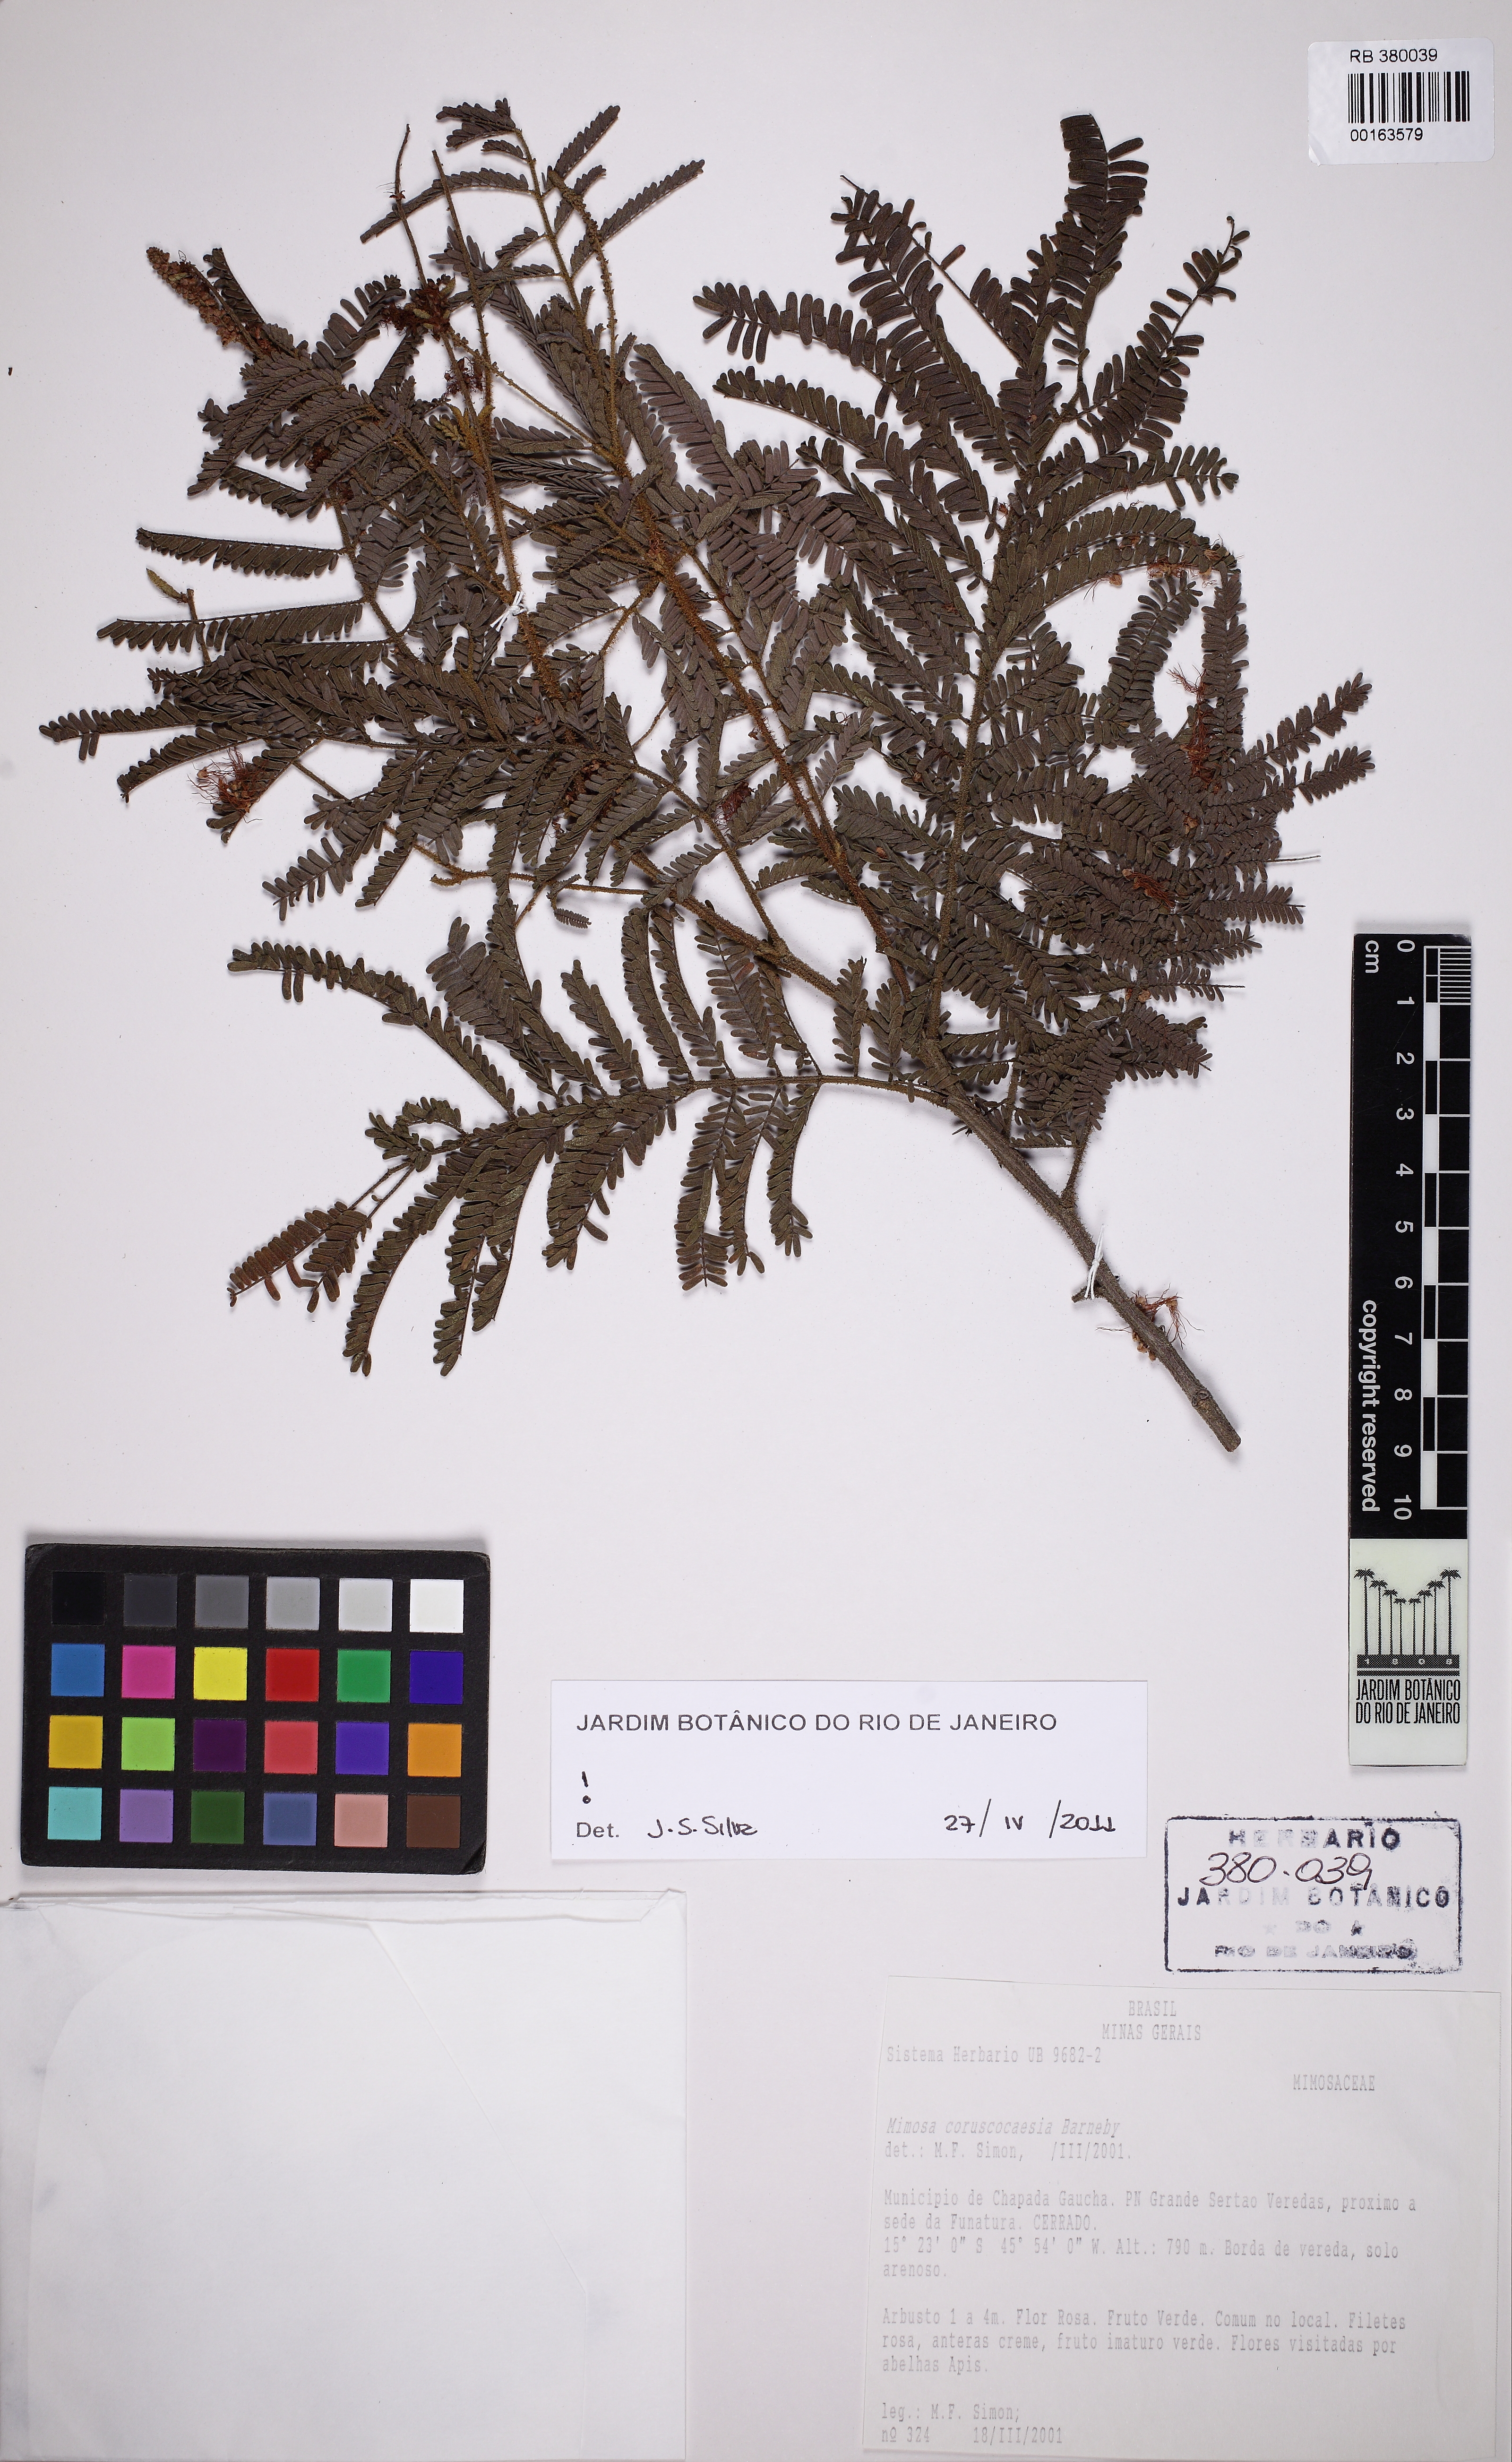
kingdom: Plantae
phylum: Tracheophyta
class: Magnoliopsida
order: Fabales
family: Fabaceae
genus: Mimosa
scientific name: Mimosa coruscocaesia
